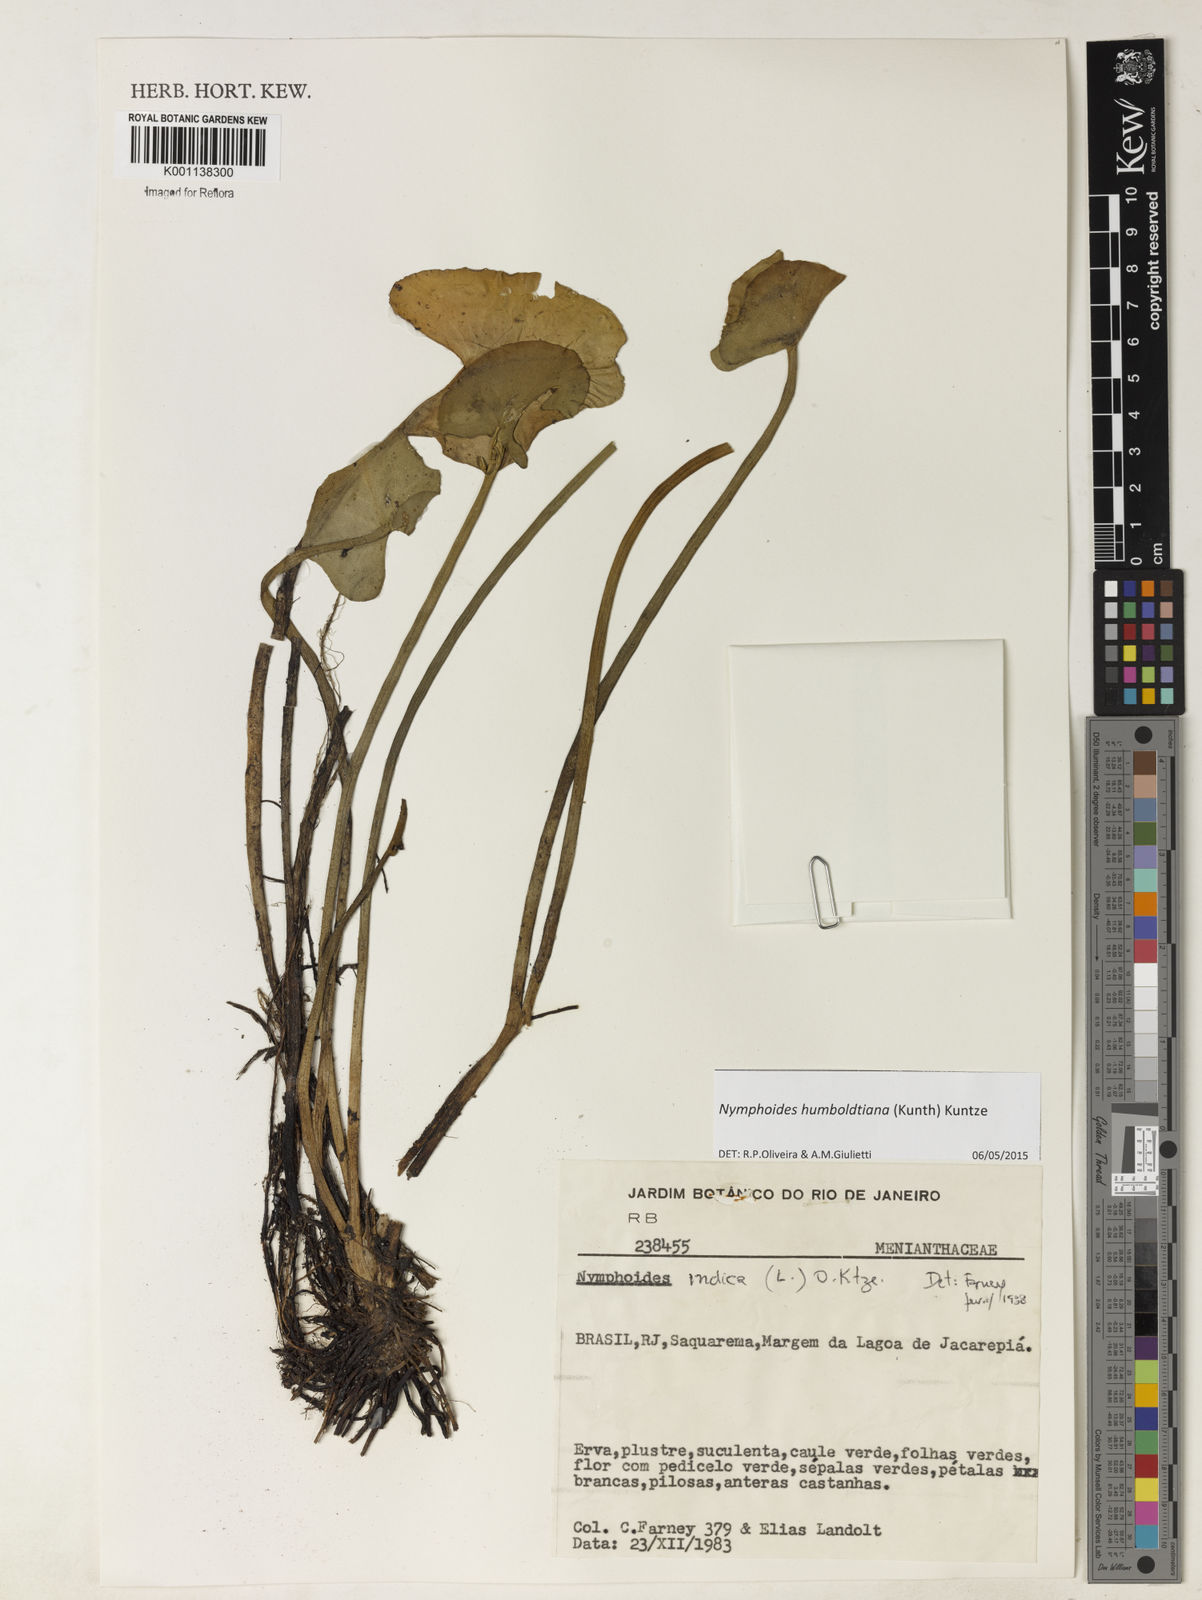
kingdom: Plantae
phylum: Tracheophyta
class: Magnoliopsida
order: Asterales
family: Menyanthaceae
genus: Nymphoides
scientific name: Nymphoides indica
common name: Water-snowflake
